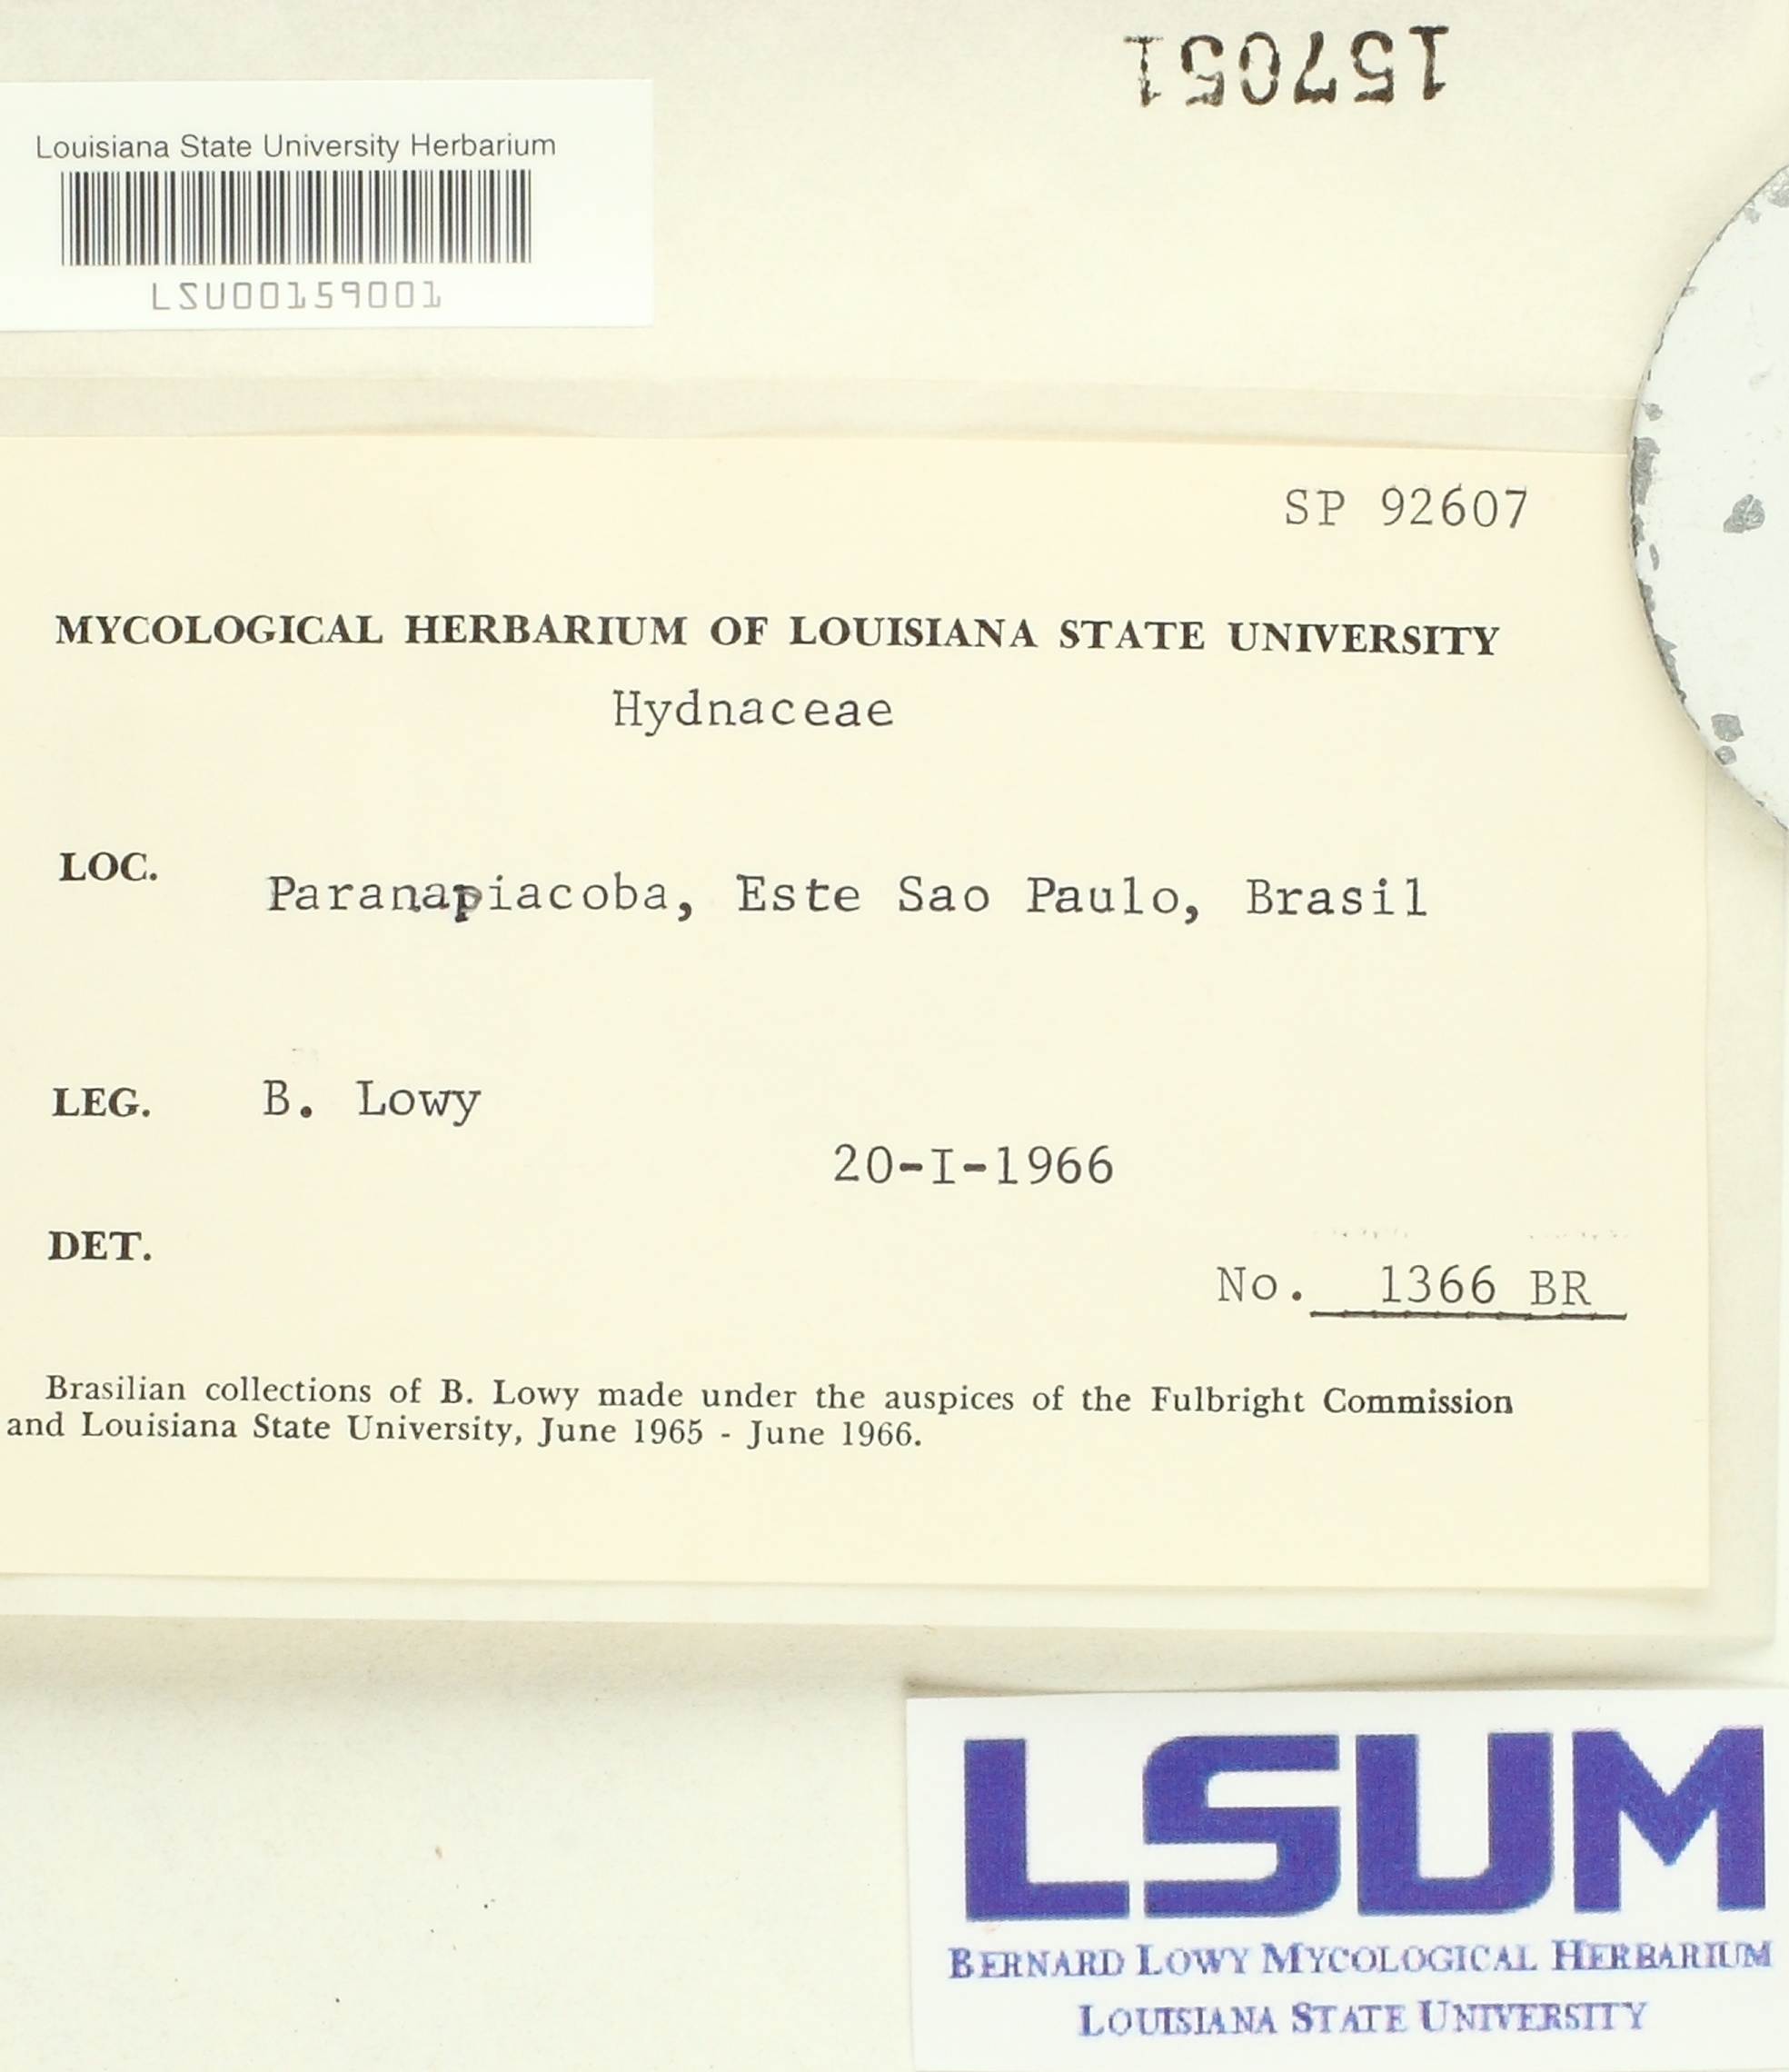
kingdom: Fungi
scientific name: Fungi
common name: Fungi
